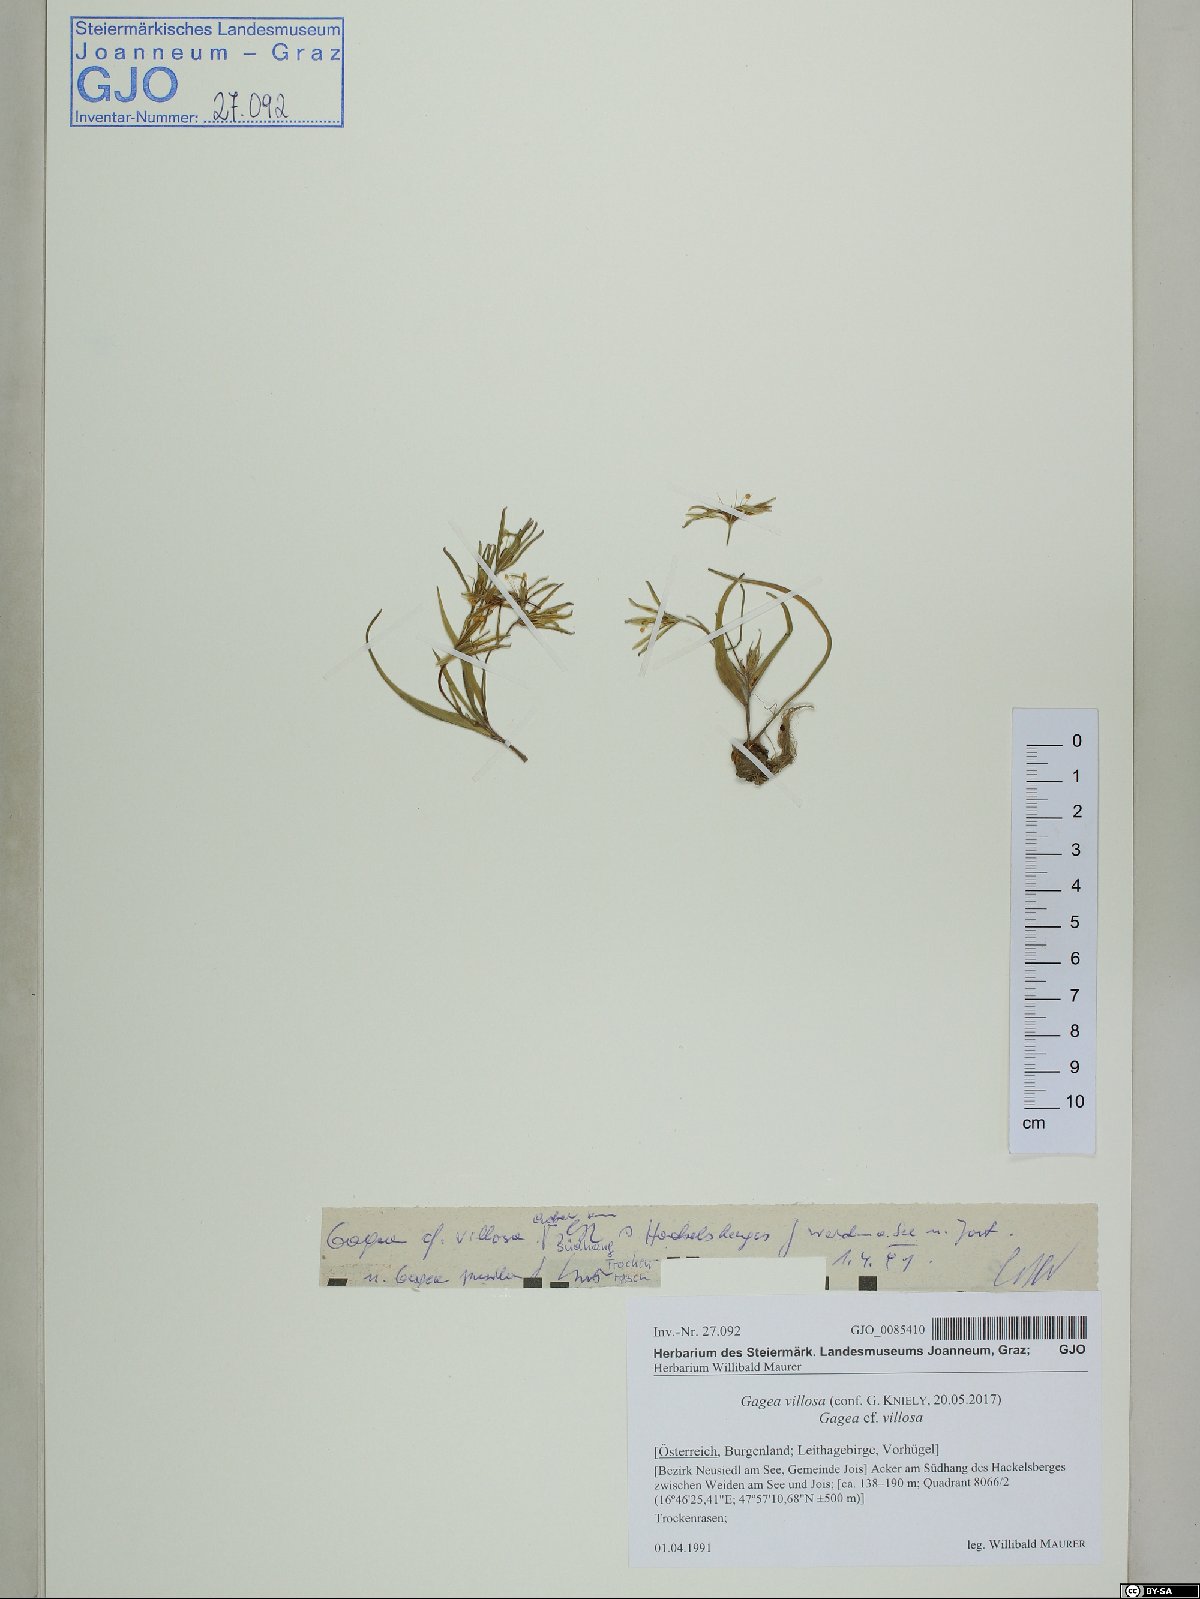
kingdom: Plantae
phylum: Tracheophyta
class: Liliopsida
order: Liliales
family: Liliaceae
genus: Gagea
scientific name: Gagea villosa
